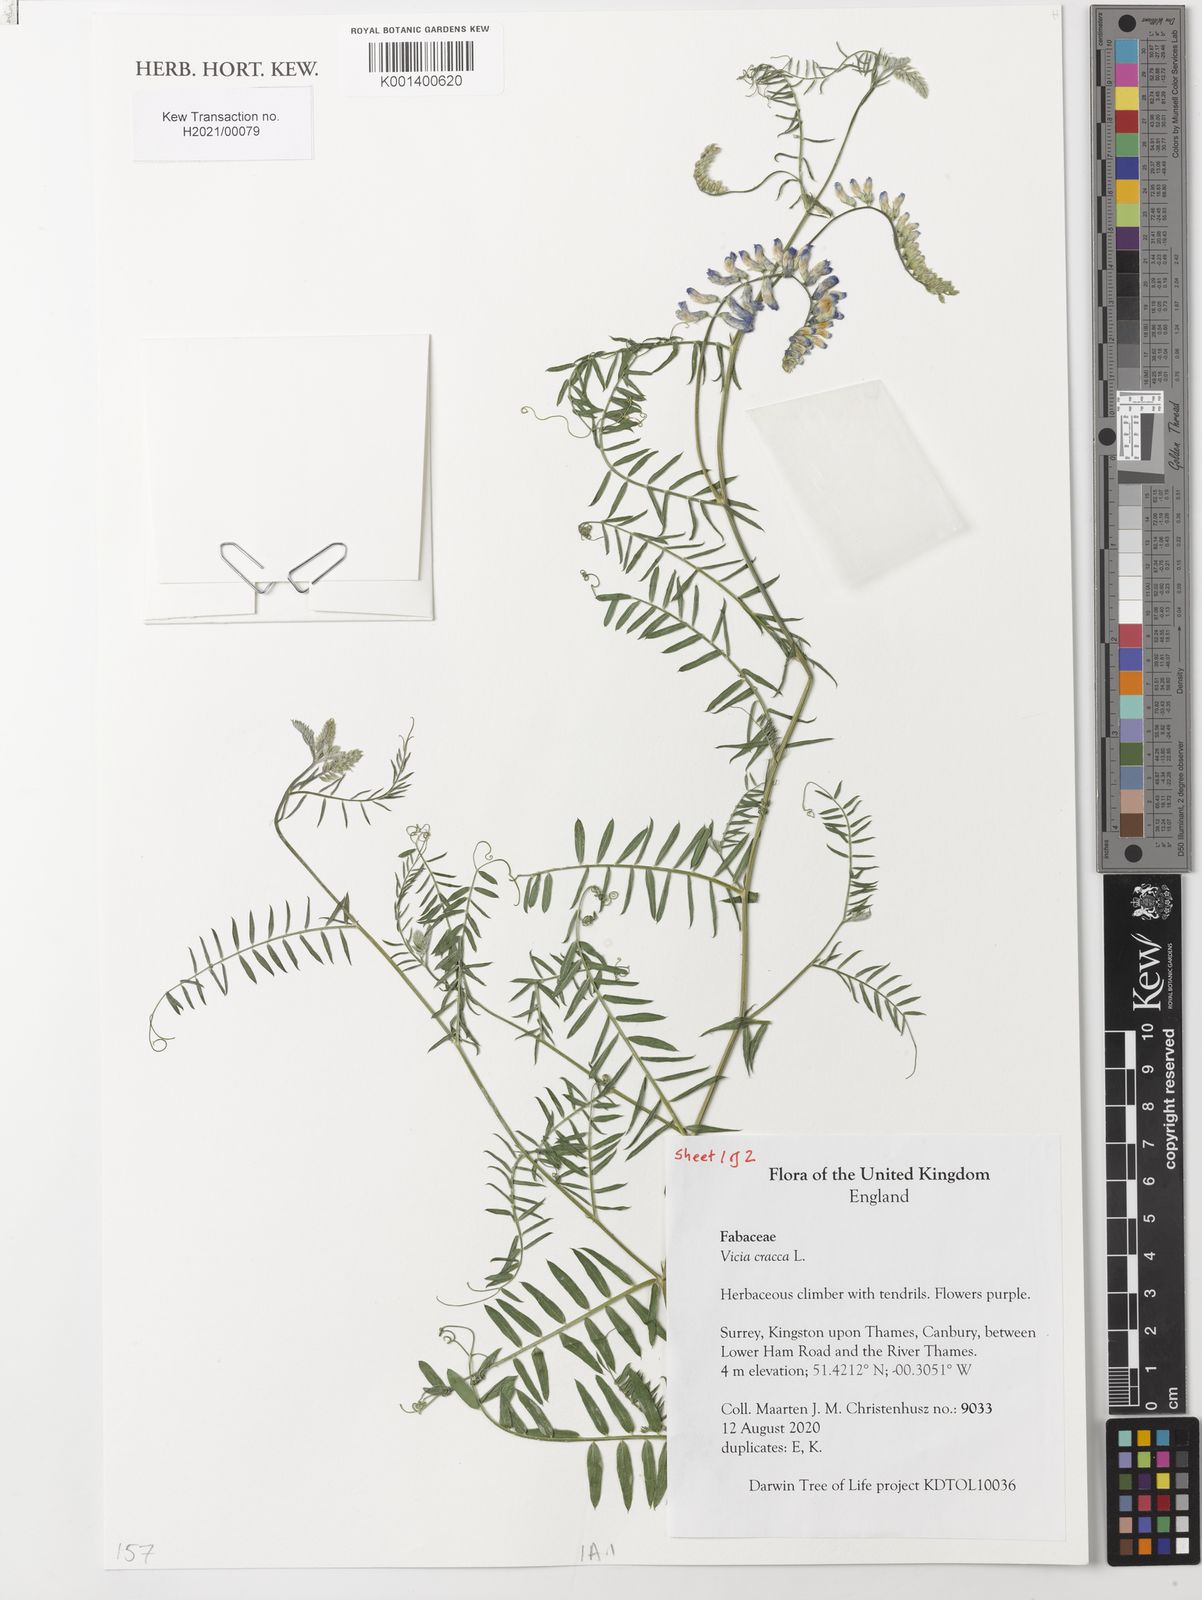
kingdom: Plantae
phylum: Tracheophyta
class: Magnoliopsida
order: Fabales
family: Fabaceae
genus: Vicia
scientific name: Vicia cracca
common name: Bird vetch
